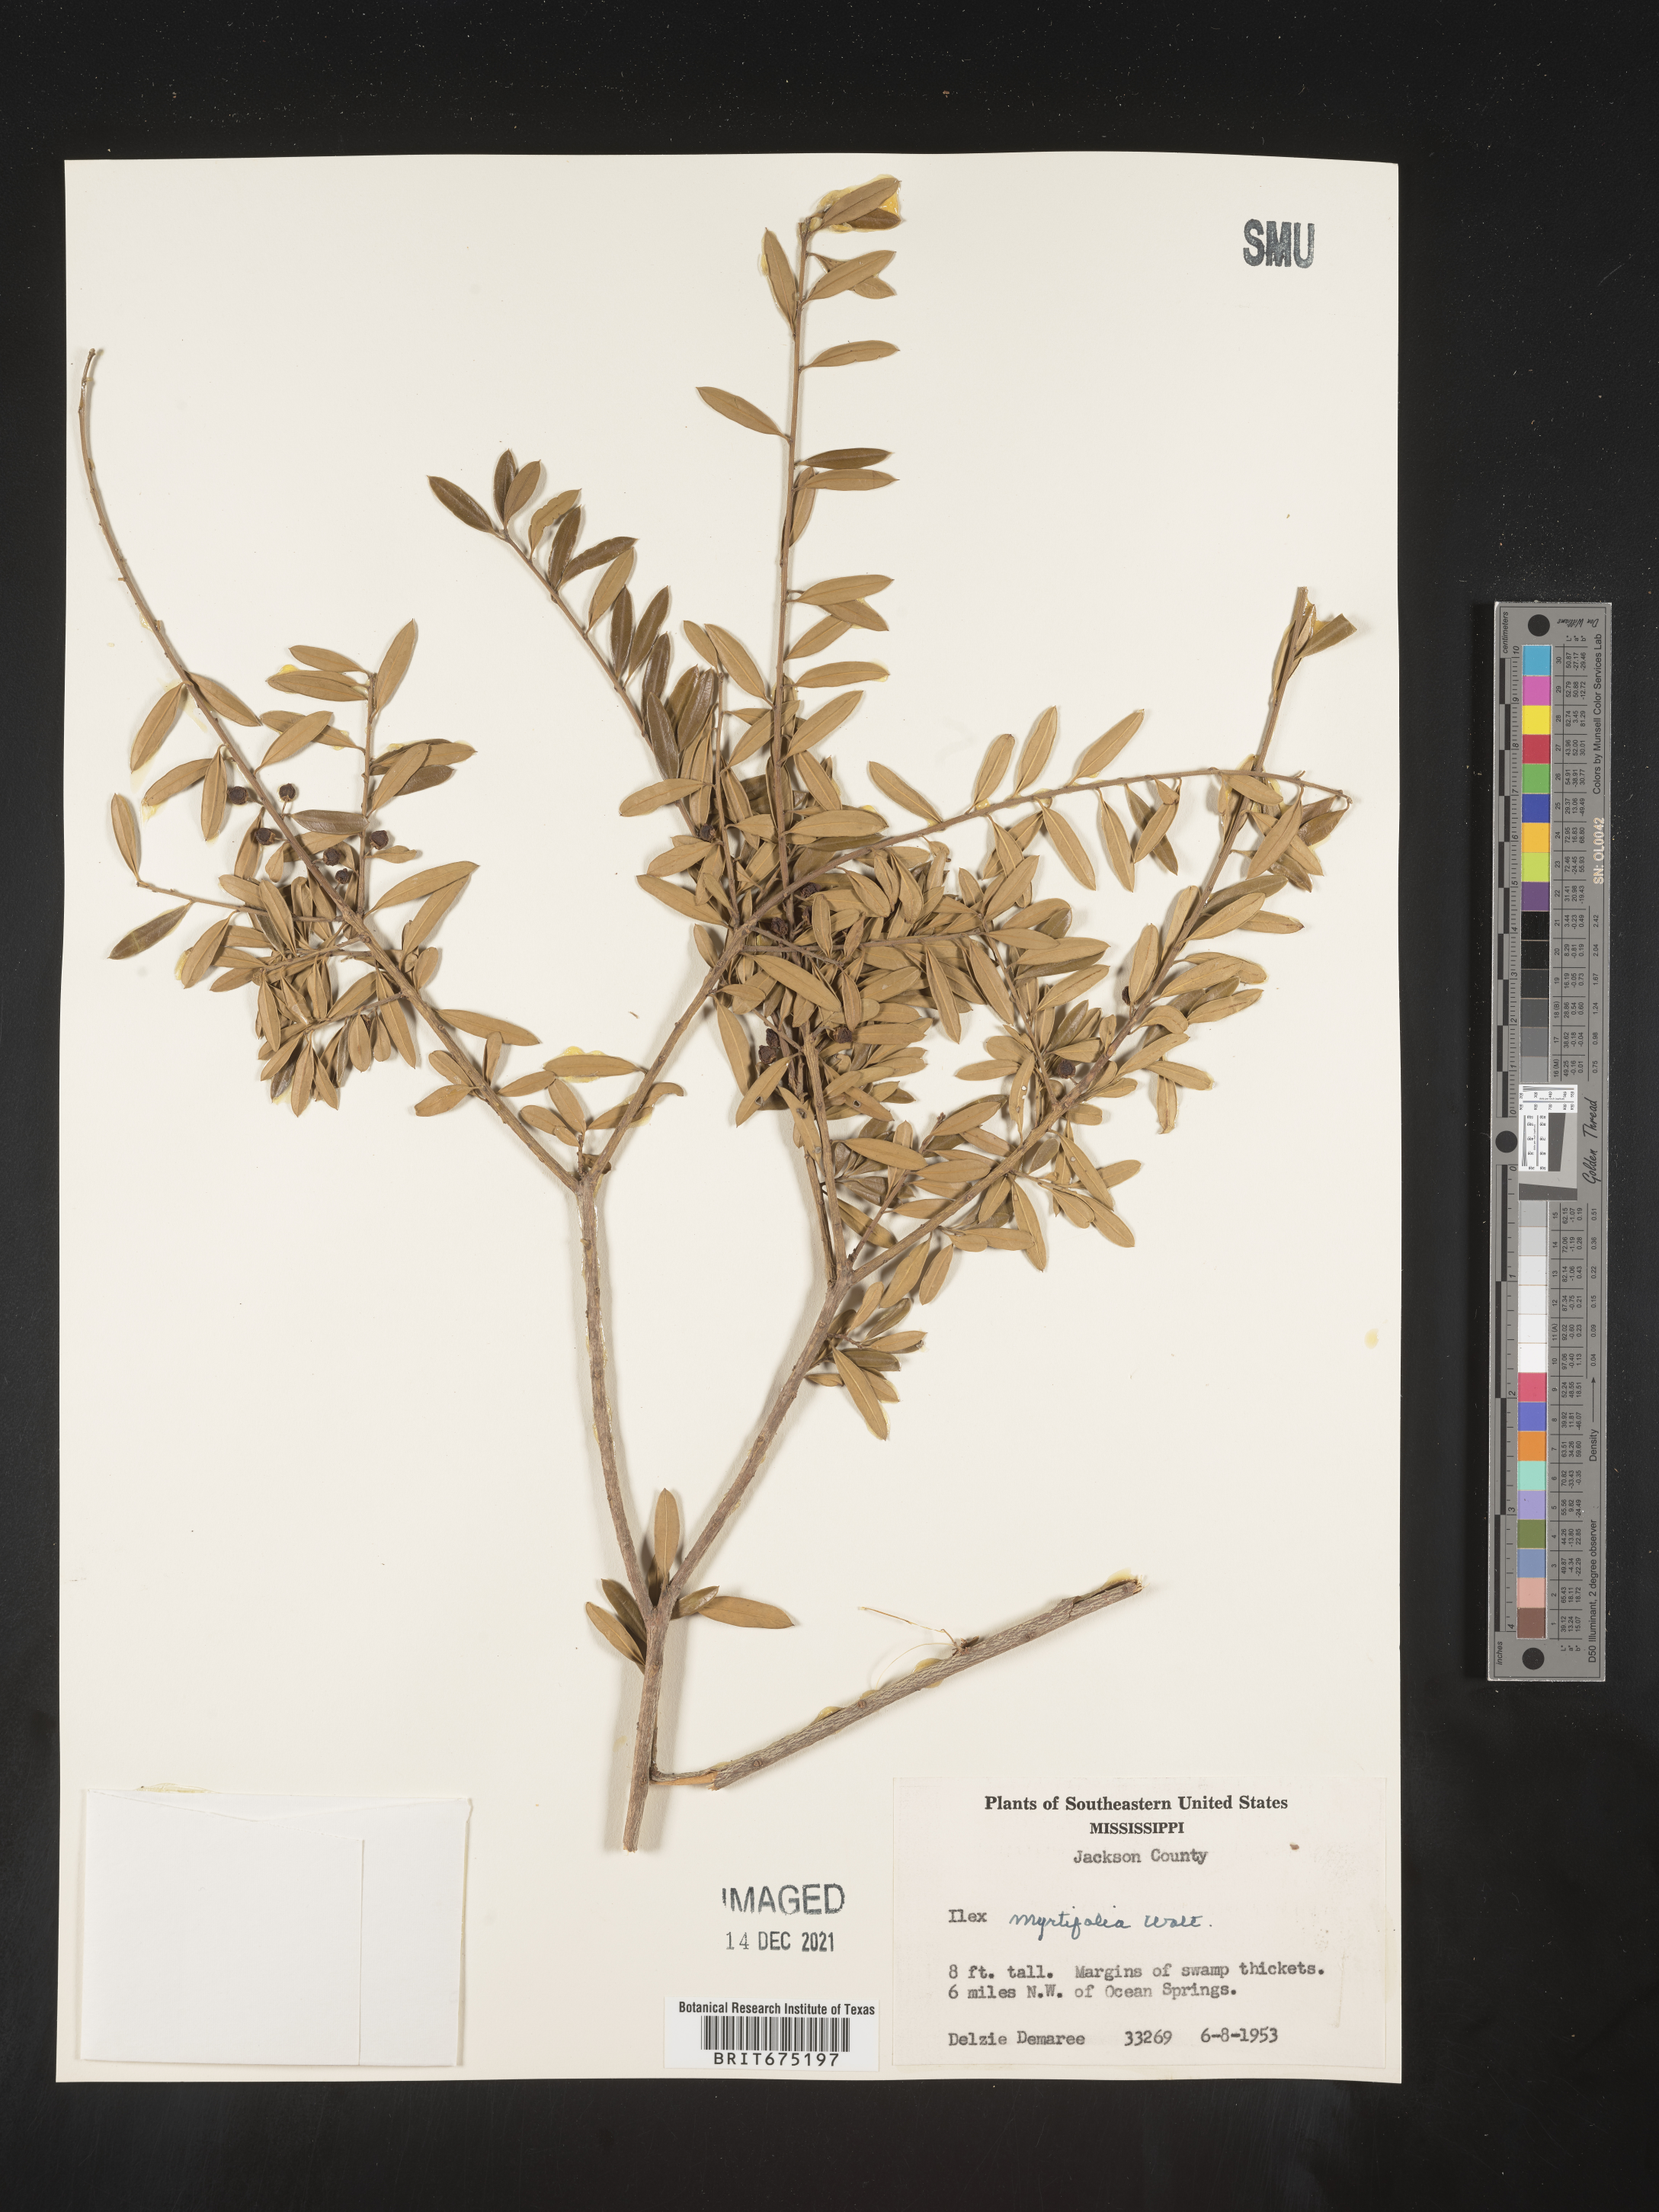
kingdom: Plantae
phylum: Tracheophyta
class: Magnoliopsida
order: Aquifoliales
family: Aquifoliaceae
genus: Ilex
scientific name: Ilex myrtifolia
